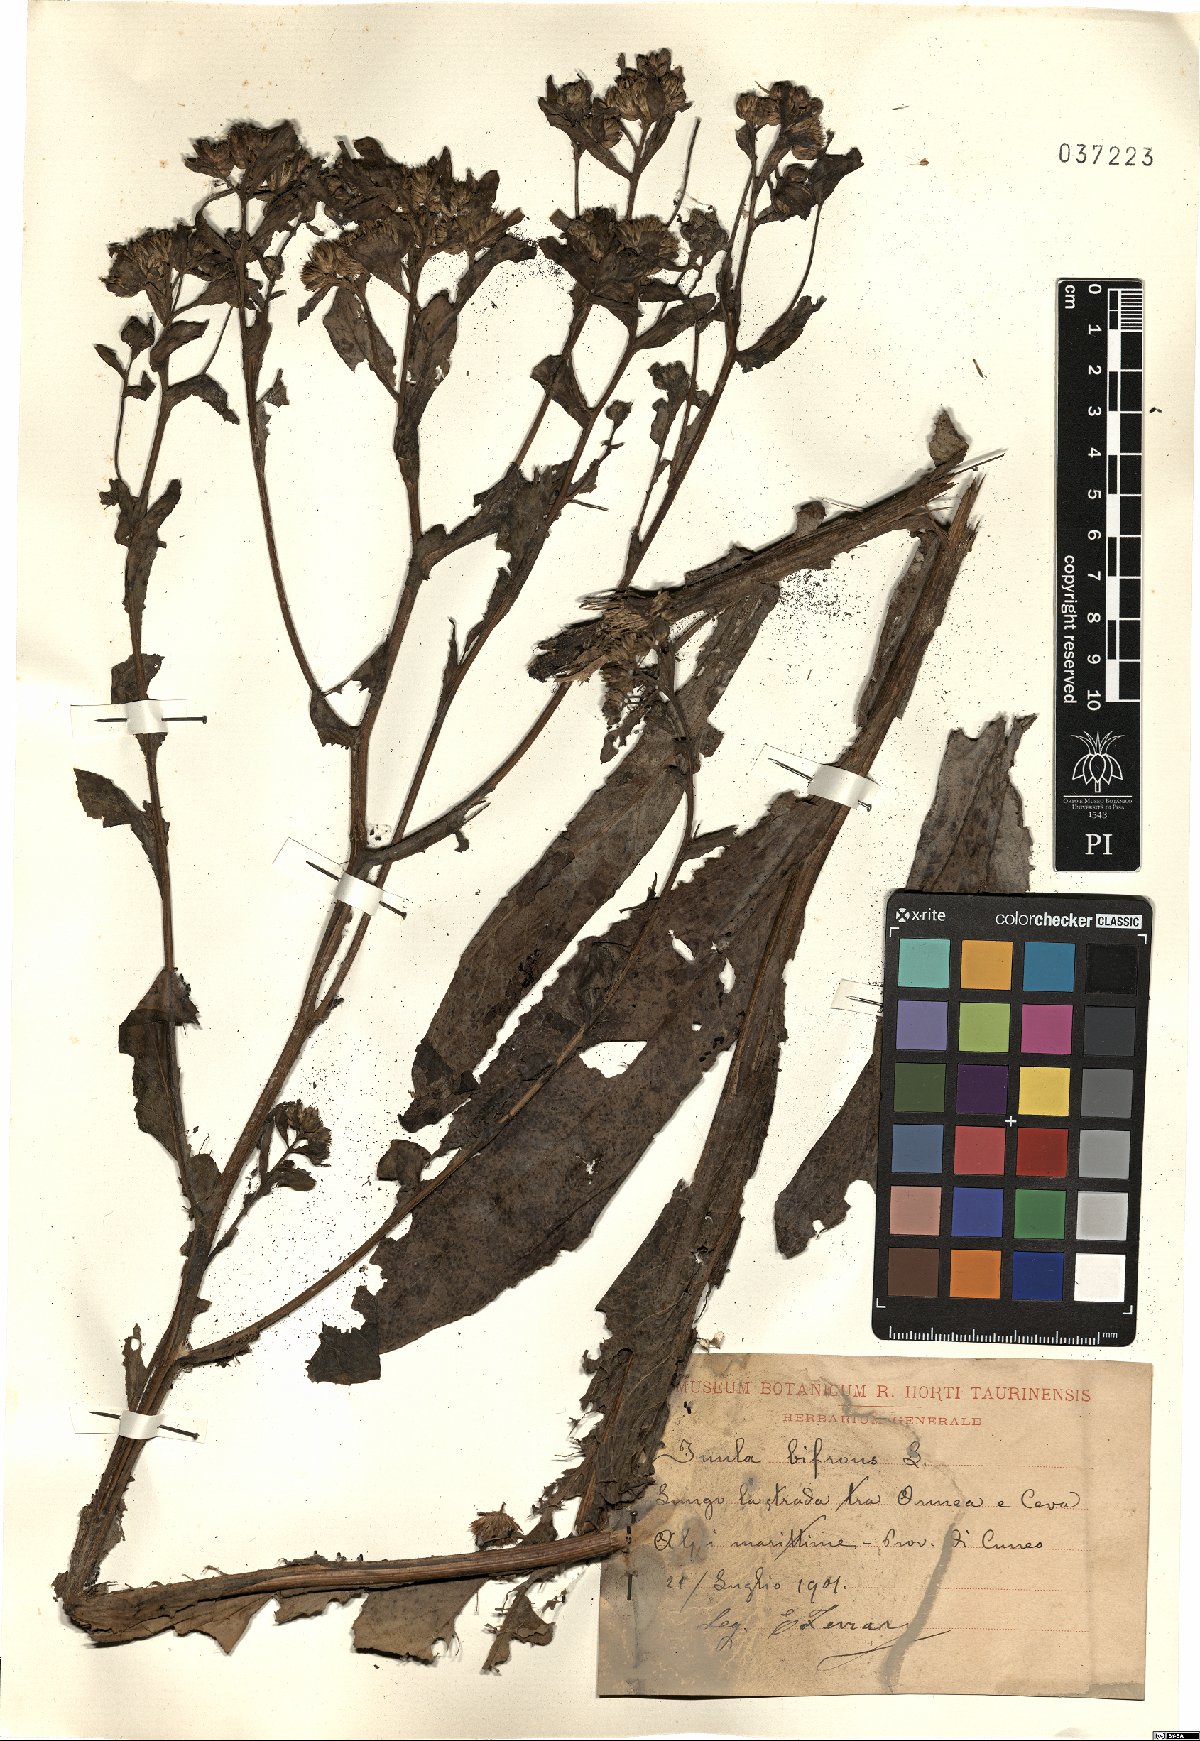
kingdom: Plantae
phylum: Tracheophyta
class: Magnoliopsida
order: Asterales
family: Asteraceae
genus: Pentanema
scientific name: Pentanema bifrons
